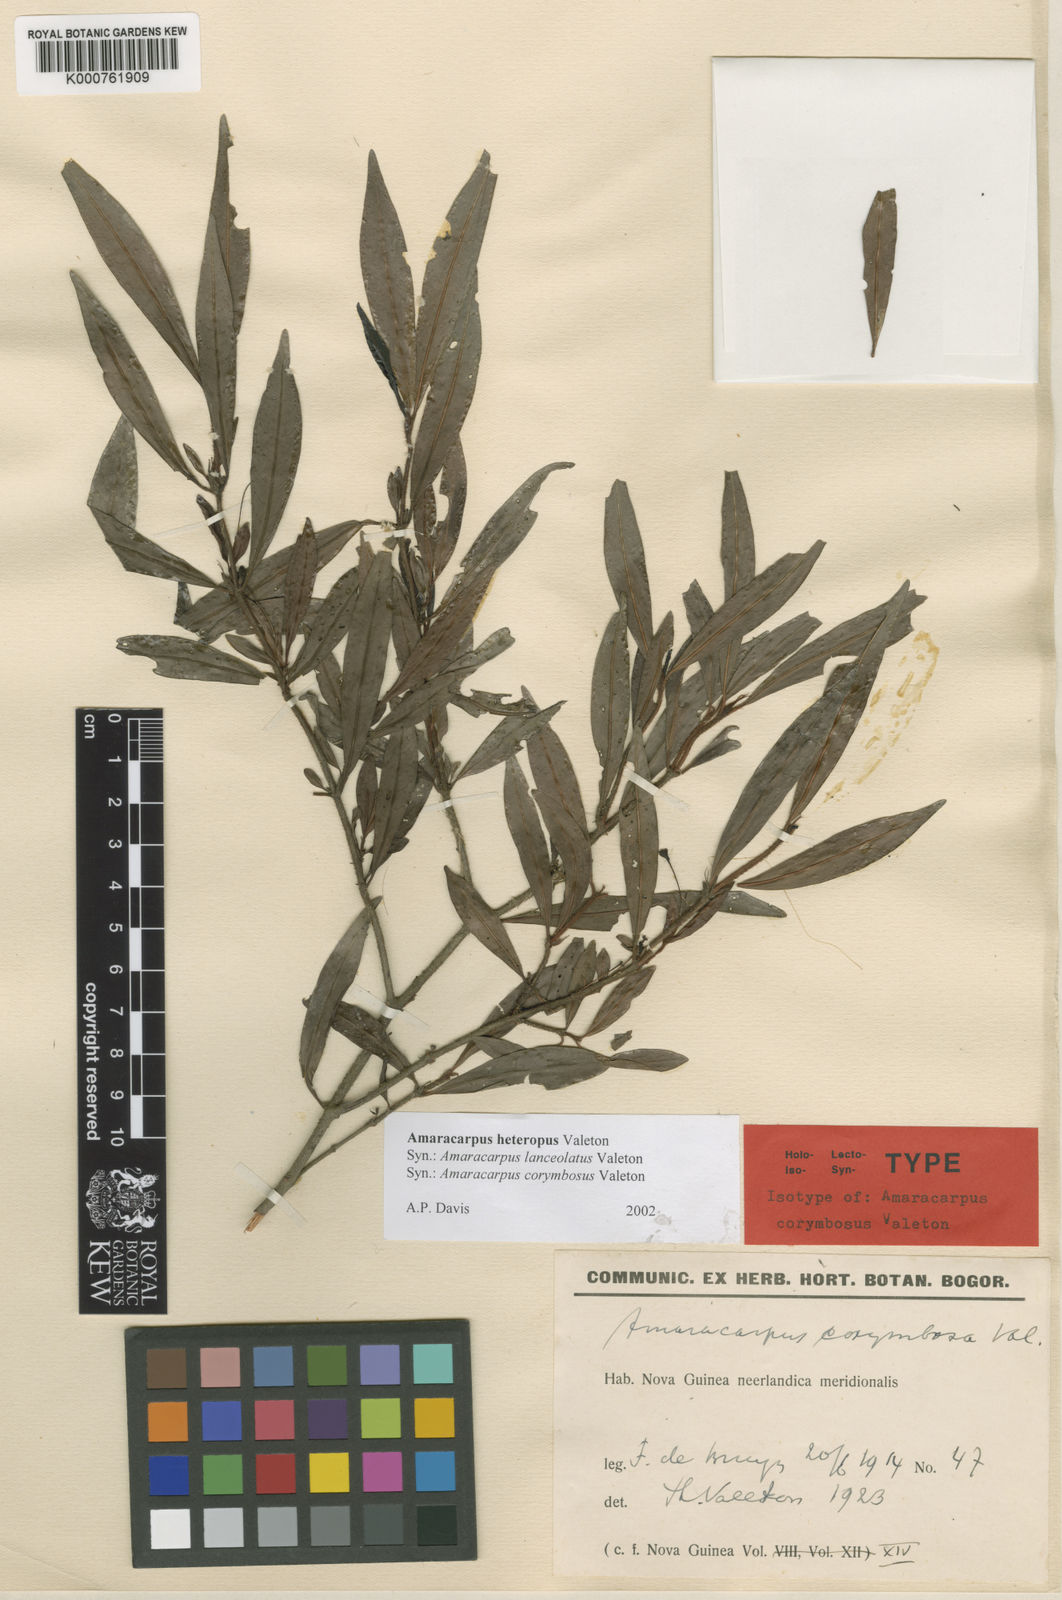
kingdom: Plantae
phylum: Tracheophyta
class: Magnoliopsida
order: Gentianales
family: Rubiaceae
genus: Amaracarpus
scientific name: Amaracarpus nematopodus
